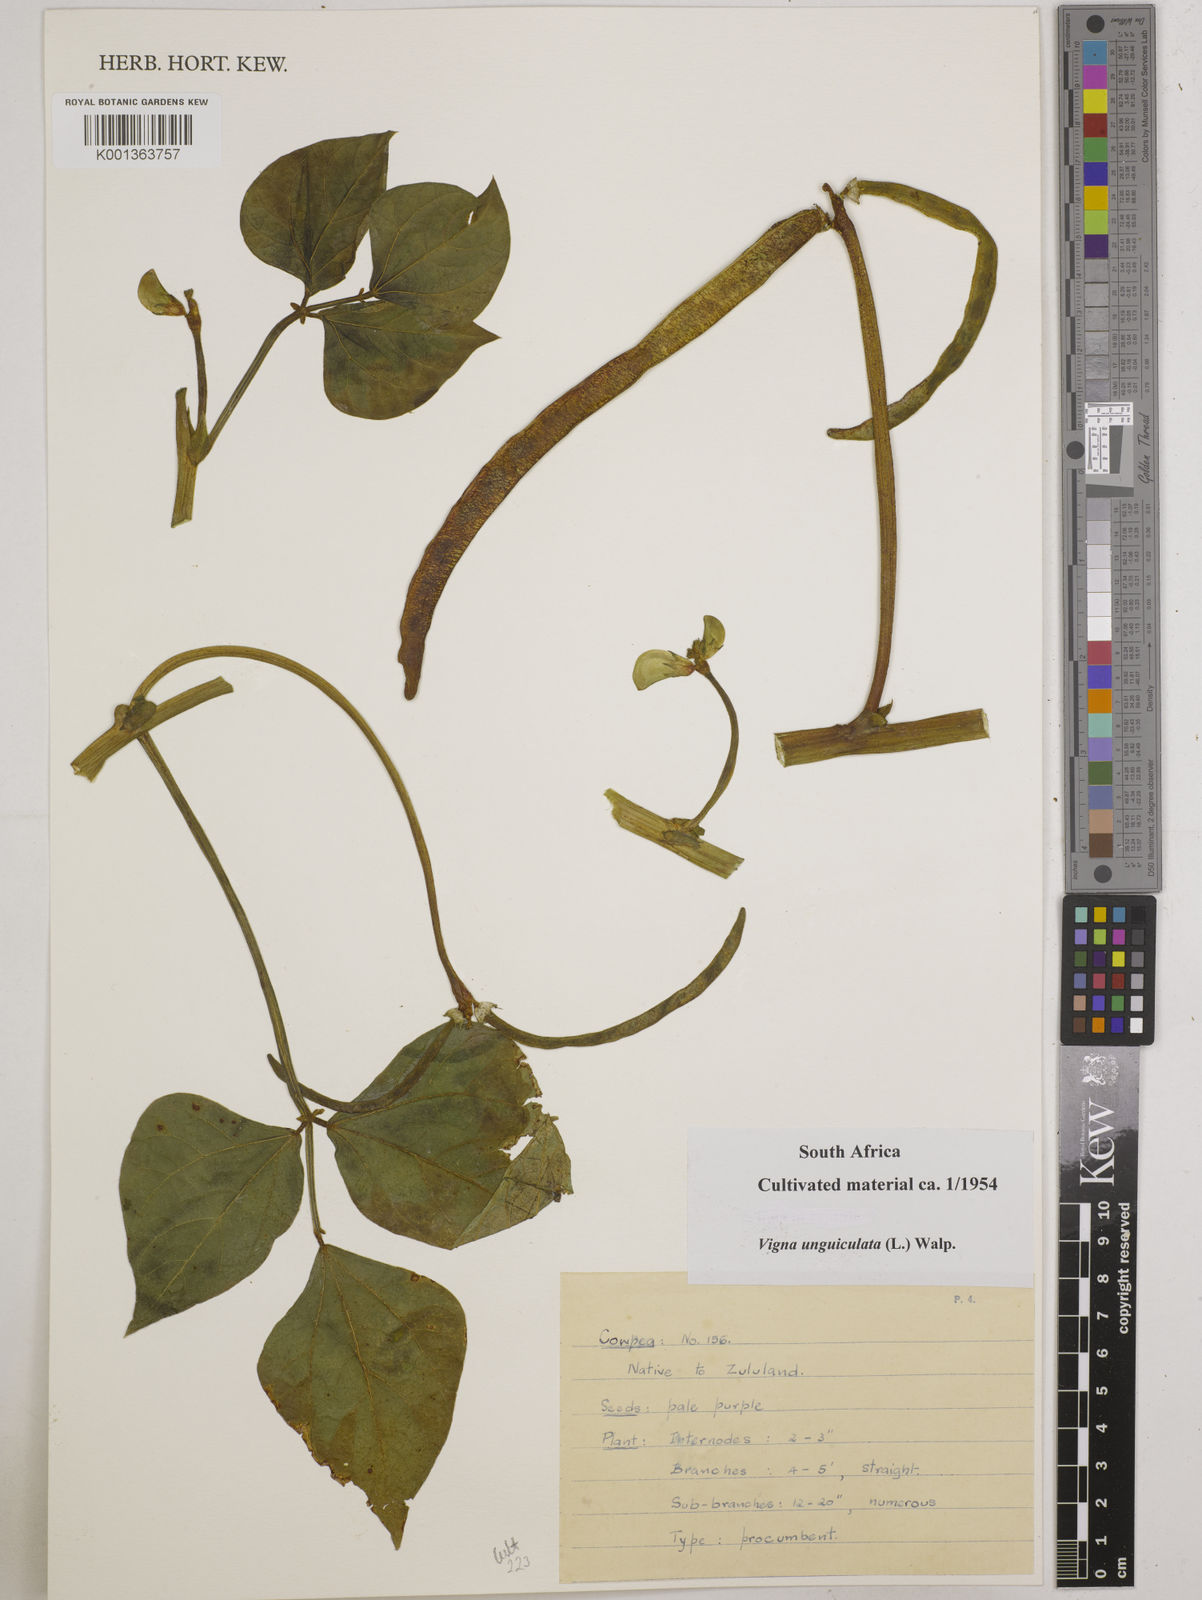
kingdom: Plantae
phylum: Tracheophyta
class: Magnoliopsida
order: Fabales
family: Fabaceae
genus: Vigna
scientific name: Vigna unguiculata
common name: Cowpea
